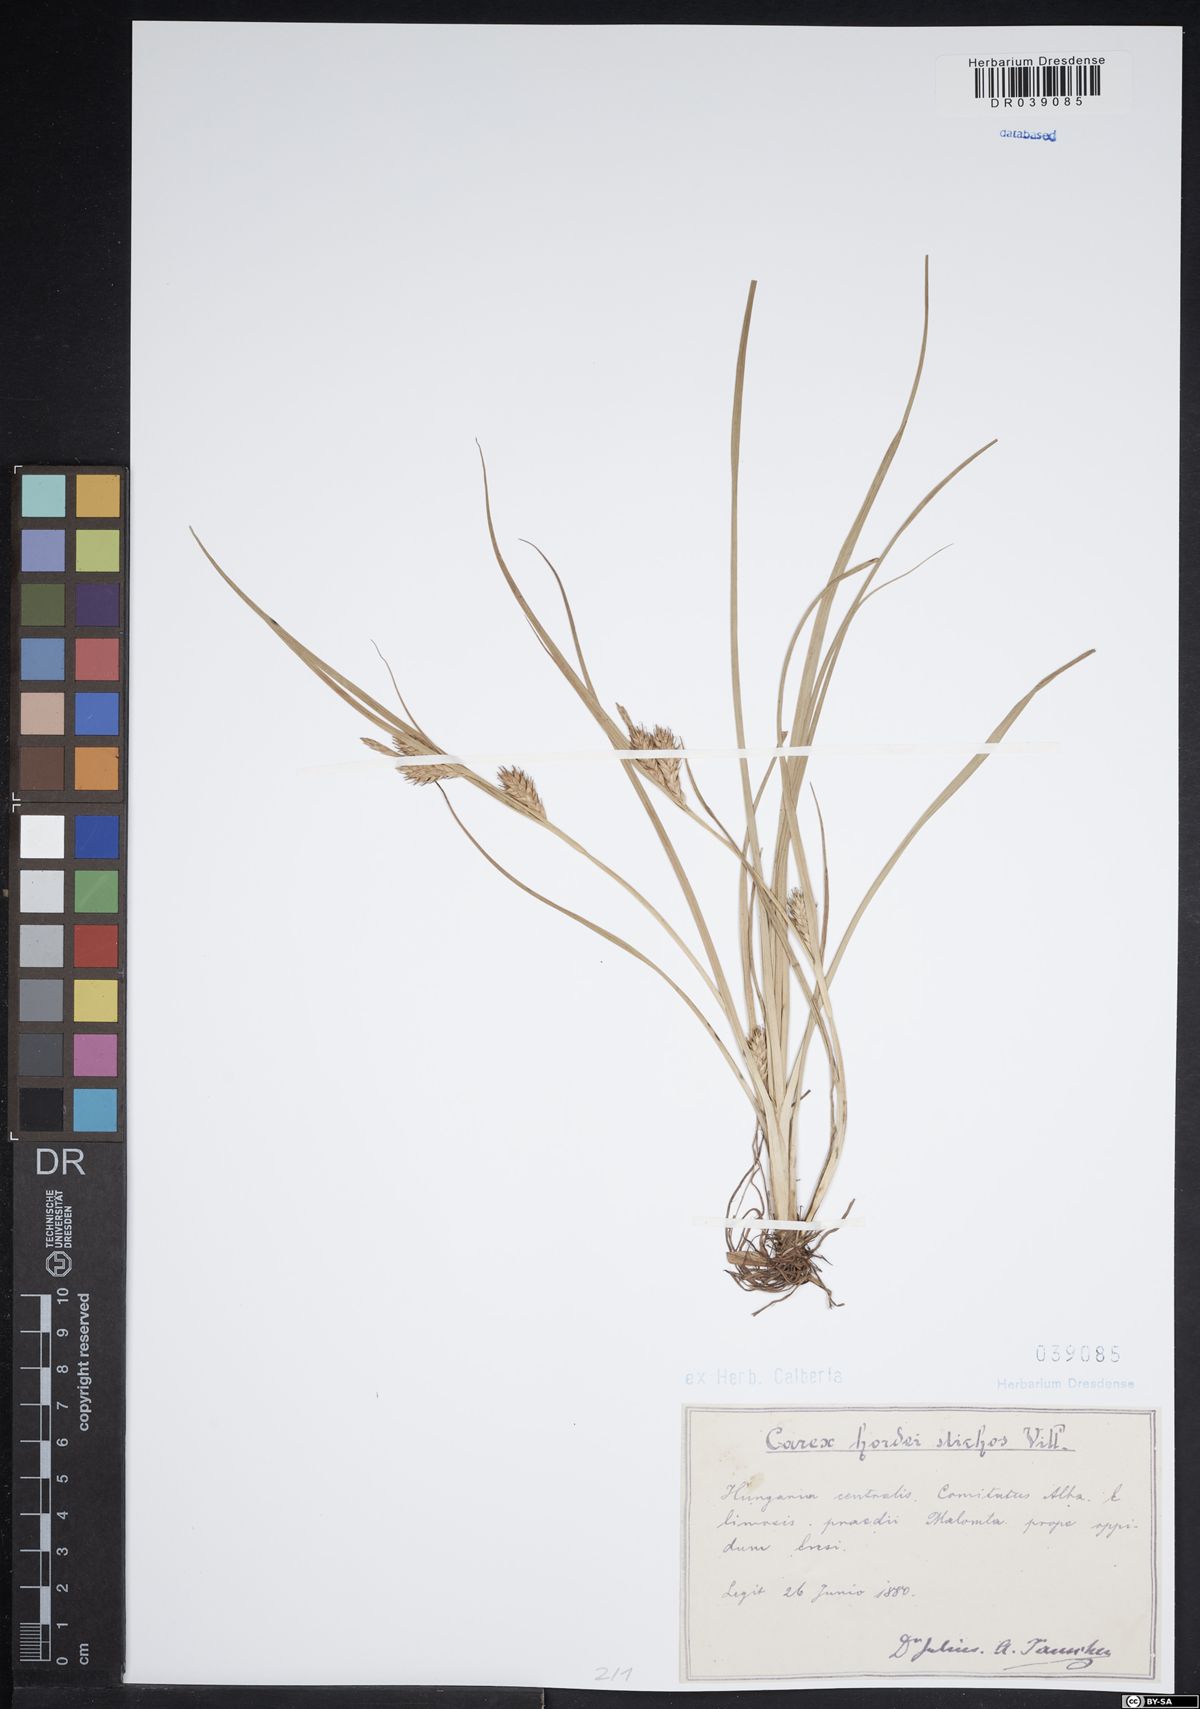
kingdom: Plantae
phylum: Tracheophyta
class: Liliopsida
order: Poales
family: Cyperaceae
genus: Carex
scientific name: Carex hordeistichos
